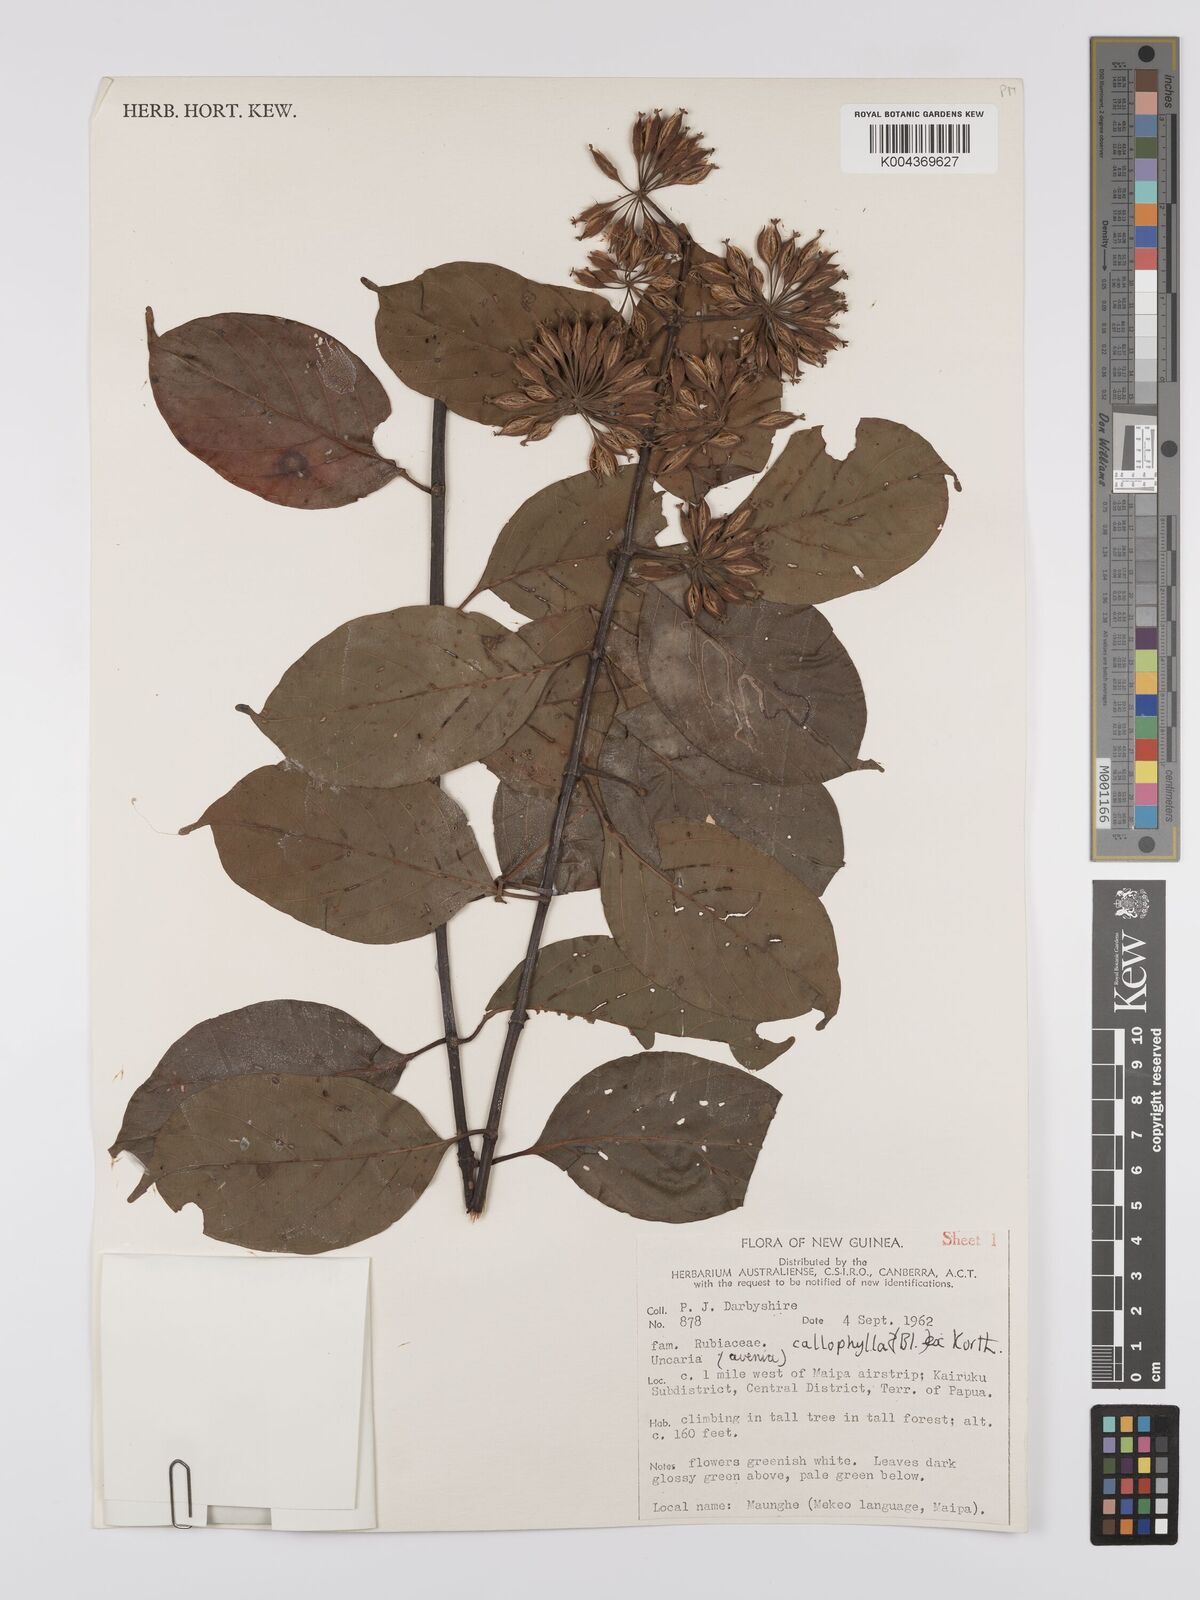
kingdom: Plantae
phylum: Tracheophyta
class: Magnoliopsida
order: Gentianales
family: Rubiaceae
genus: Uncaria
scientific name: Uncaria callophylla
